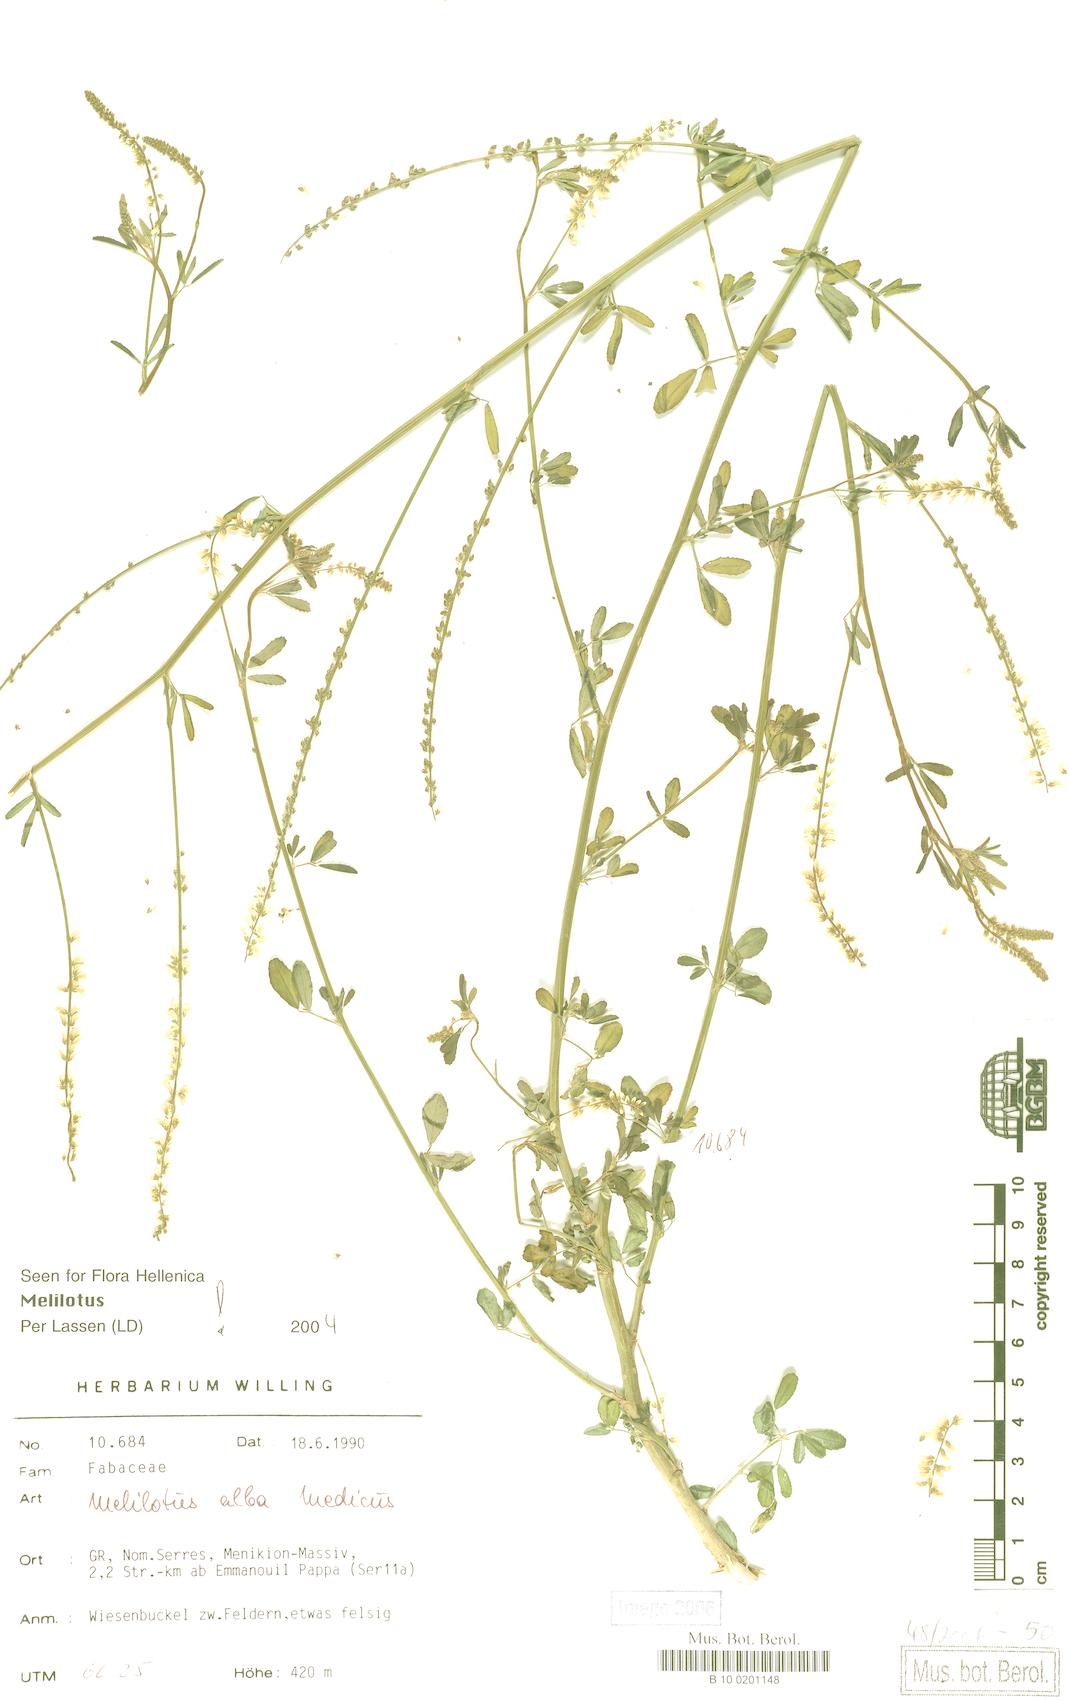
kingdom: Plantae
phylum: Tracheophyta
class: Magnoliopsida
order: Fabales
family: Fabaceae
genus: Melilotus
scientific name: Melilotus albus
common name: White melilot
